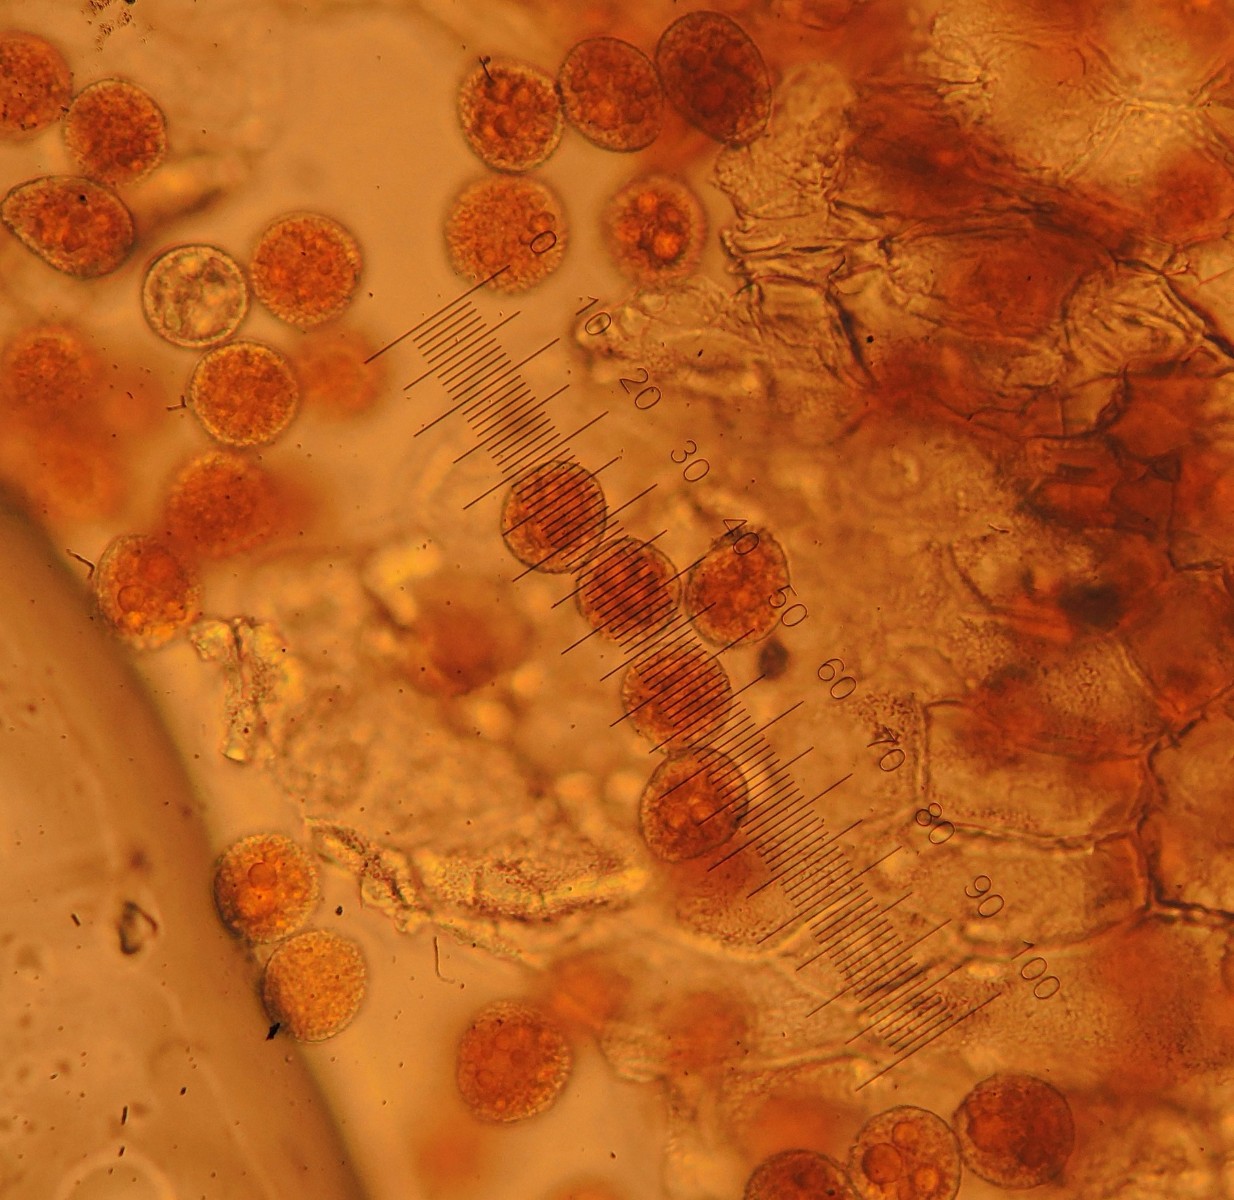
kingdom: Fungi
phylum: Basidiomycota
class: Pucciniomycetes
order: Pucciniales
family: Phragmidiaceae
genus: Trachyspora
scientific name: Trachyspora alchemillae
